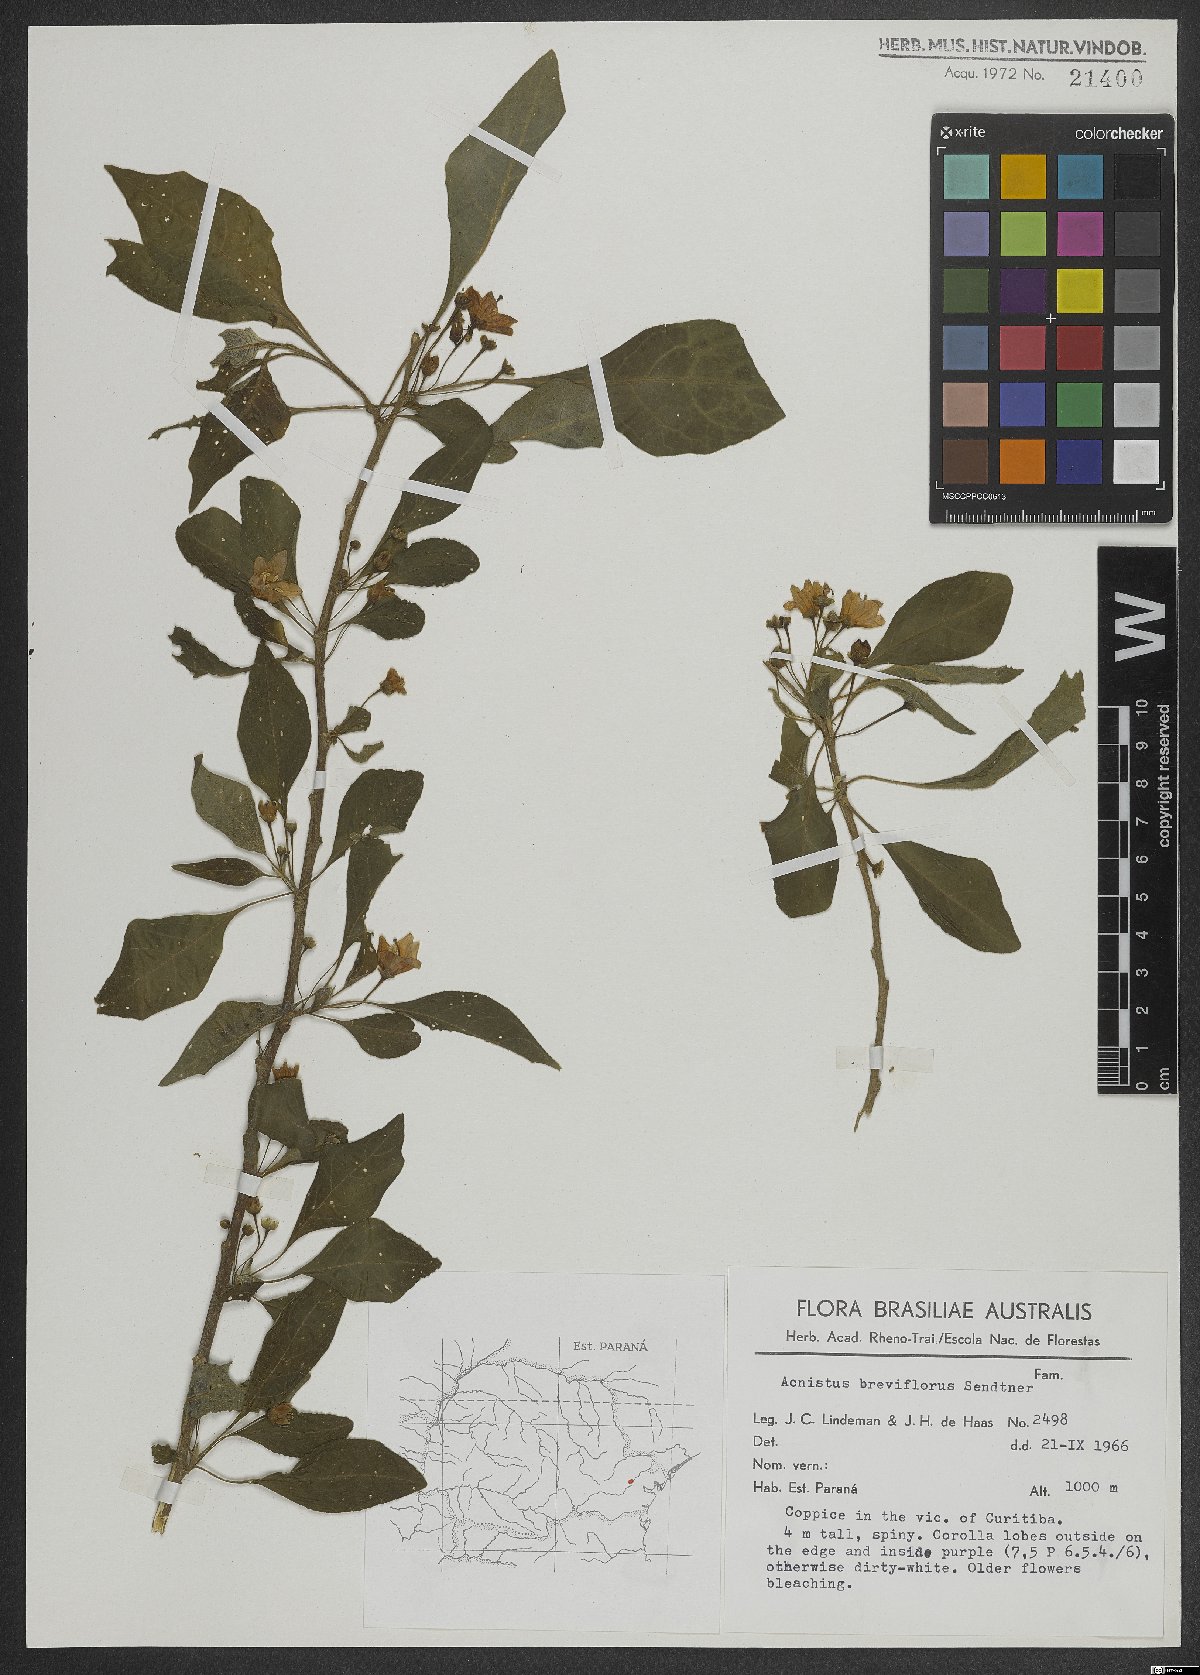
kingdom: Plantae
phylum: Tracheophyta
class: Magnoliopsida
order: Solanales
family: Solanaceae
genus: Vassobia
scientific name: Vassobia breviflora
